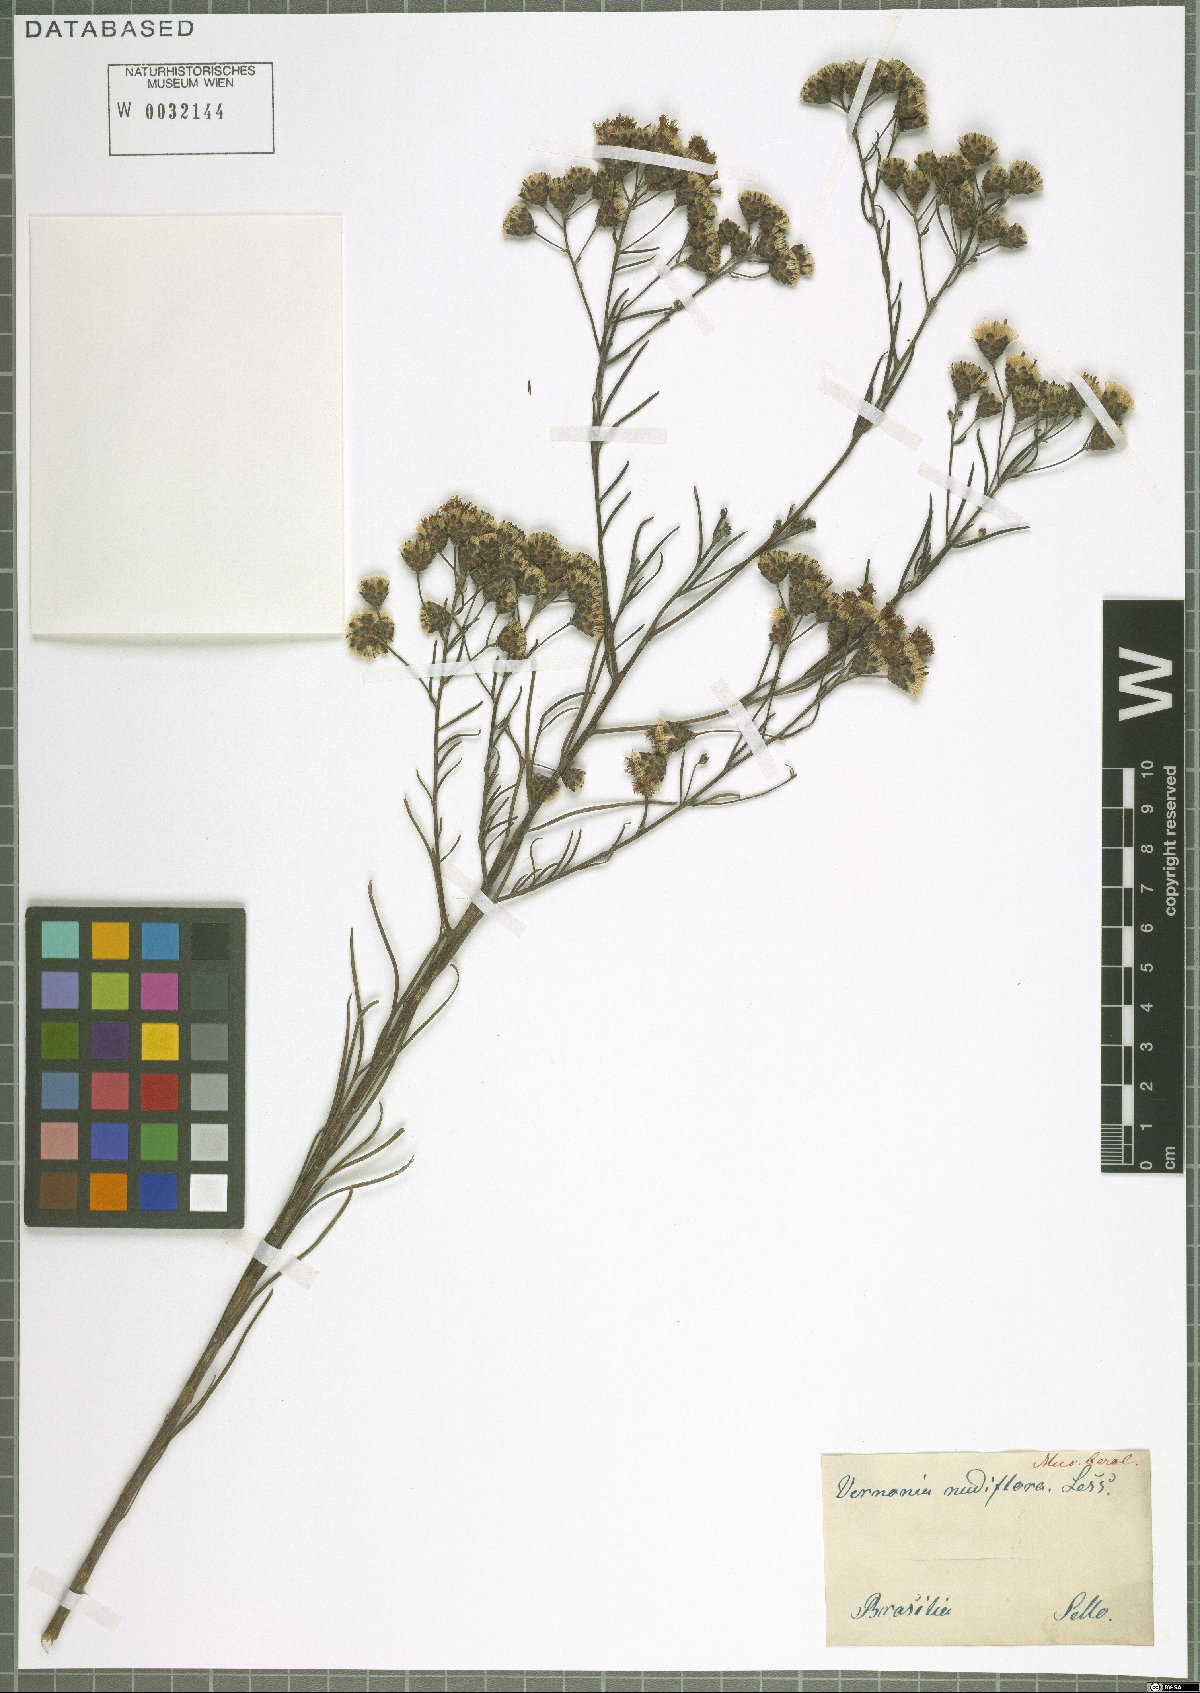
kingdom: Plantae
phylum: Tracheophyta
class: Magnoliopsida
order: Asterales
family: Asteraceae
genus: Vernonanthura
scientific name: Vernonanthura nudiflora
